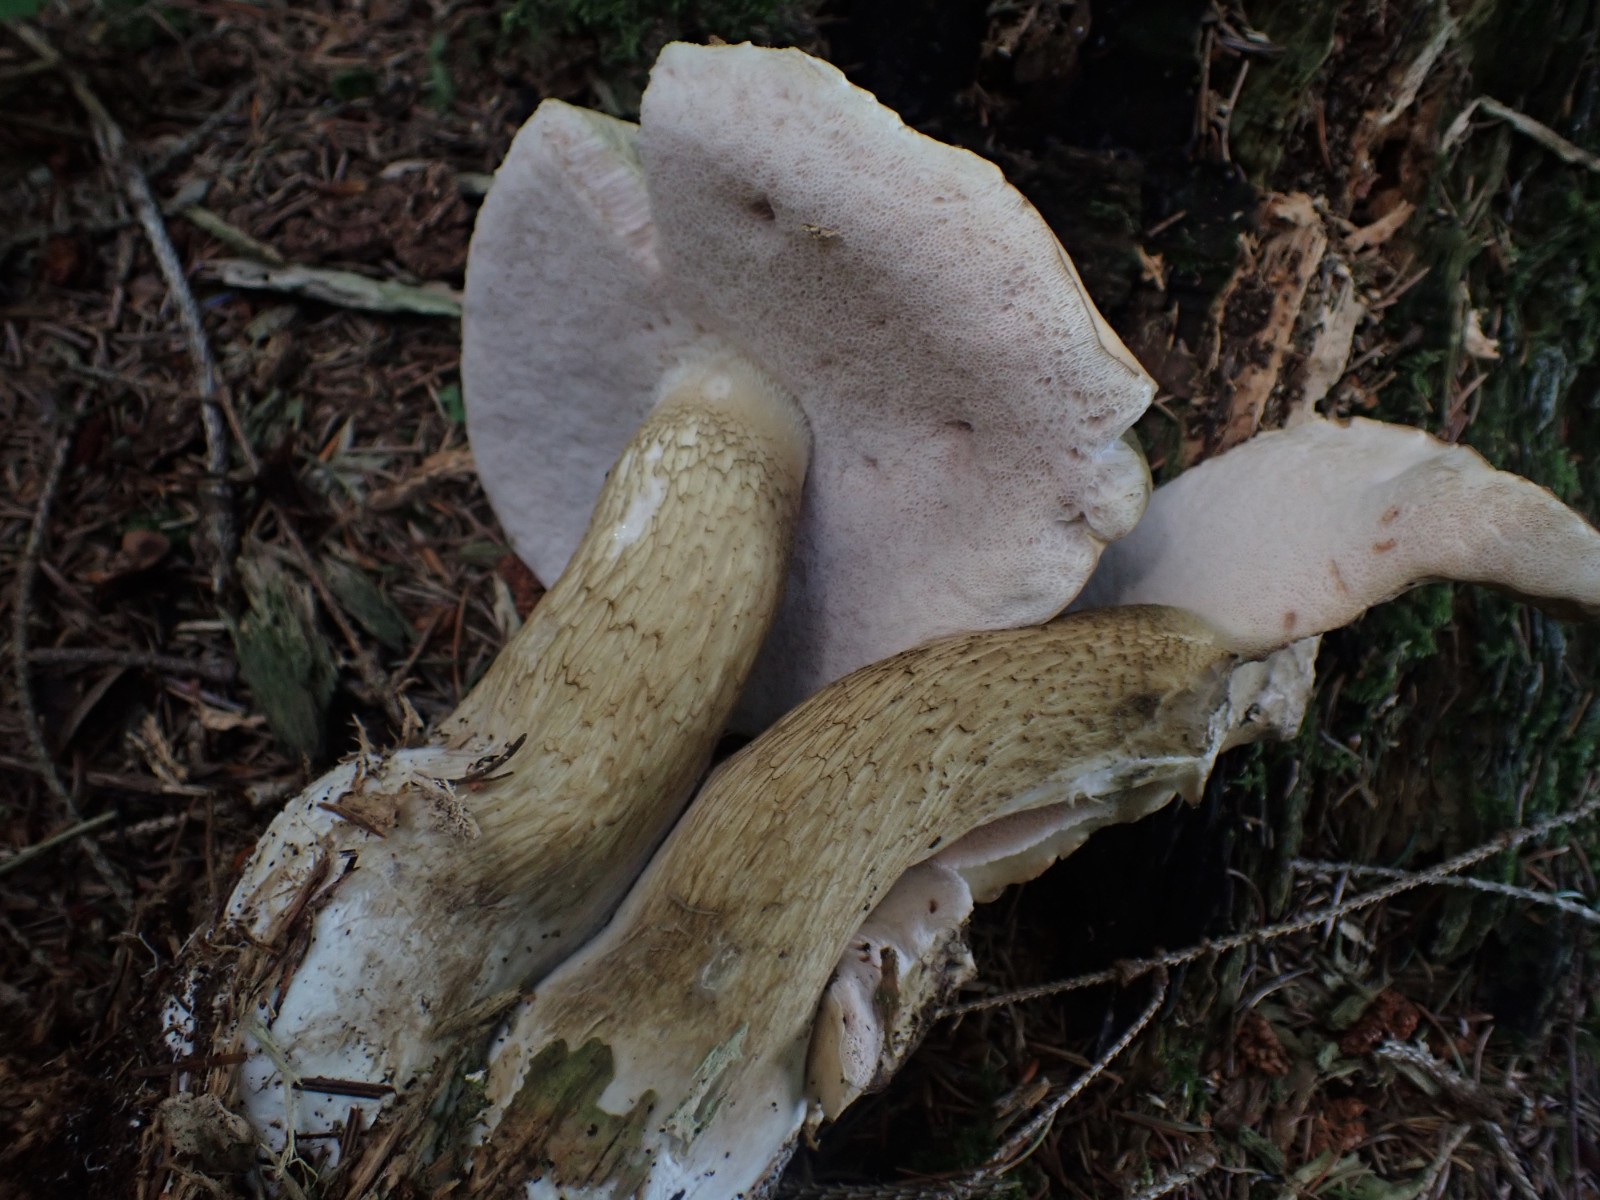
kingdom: Fungi
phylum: Basidiomycota
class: Agaricomycetes
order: Boletales
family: Boletaceae
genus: Tylopilus
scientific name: Tylopilus felleus
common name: galderørhat
